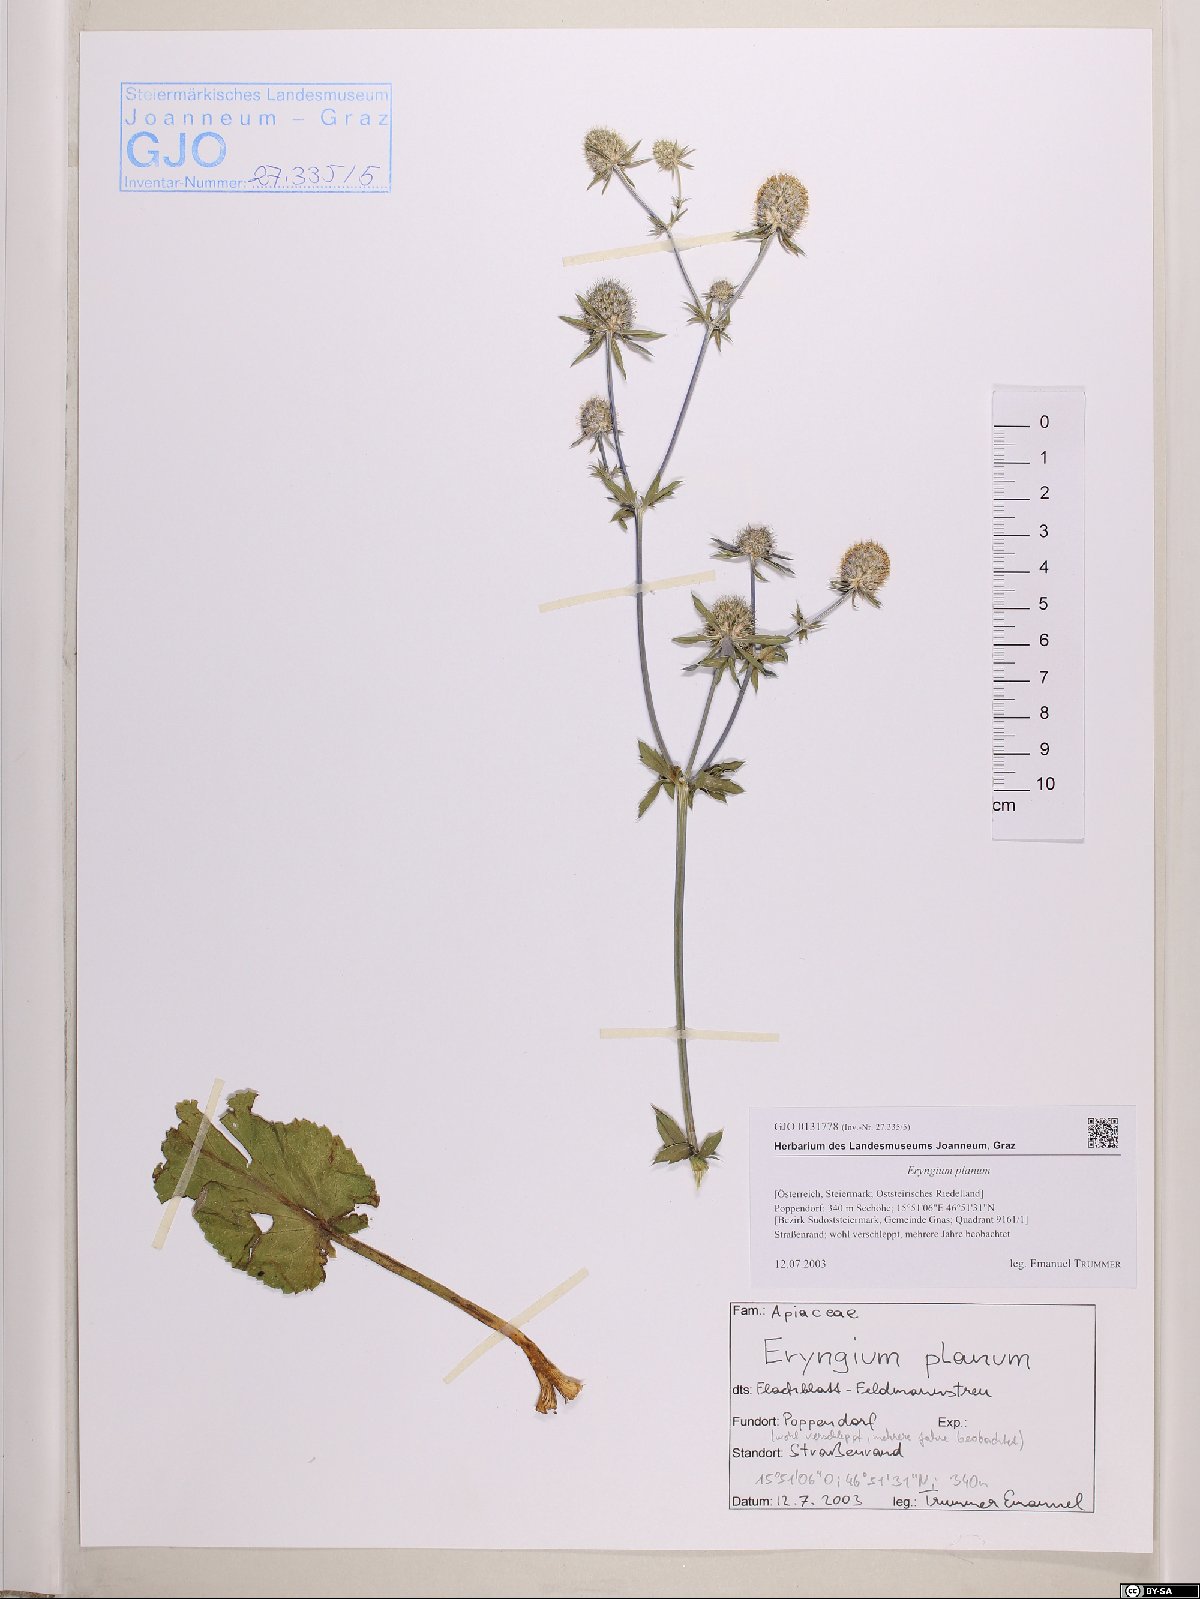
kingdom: Plantae
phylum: Tracheophyta
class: Magnoliopsida
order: Apiales
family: Apiaceae
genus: Eryngium
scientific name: Eryngium planum
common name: Blue eryngo
